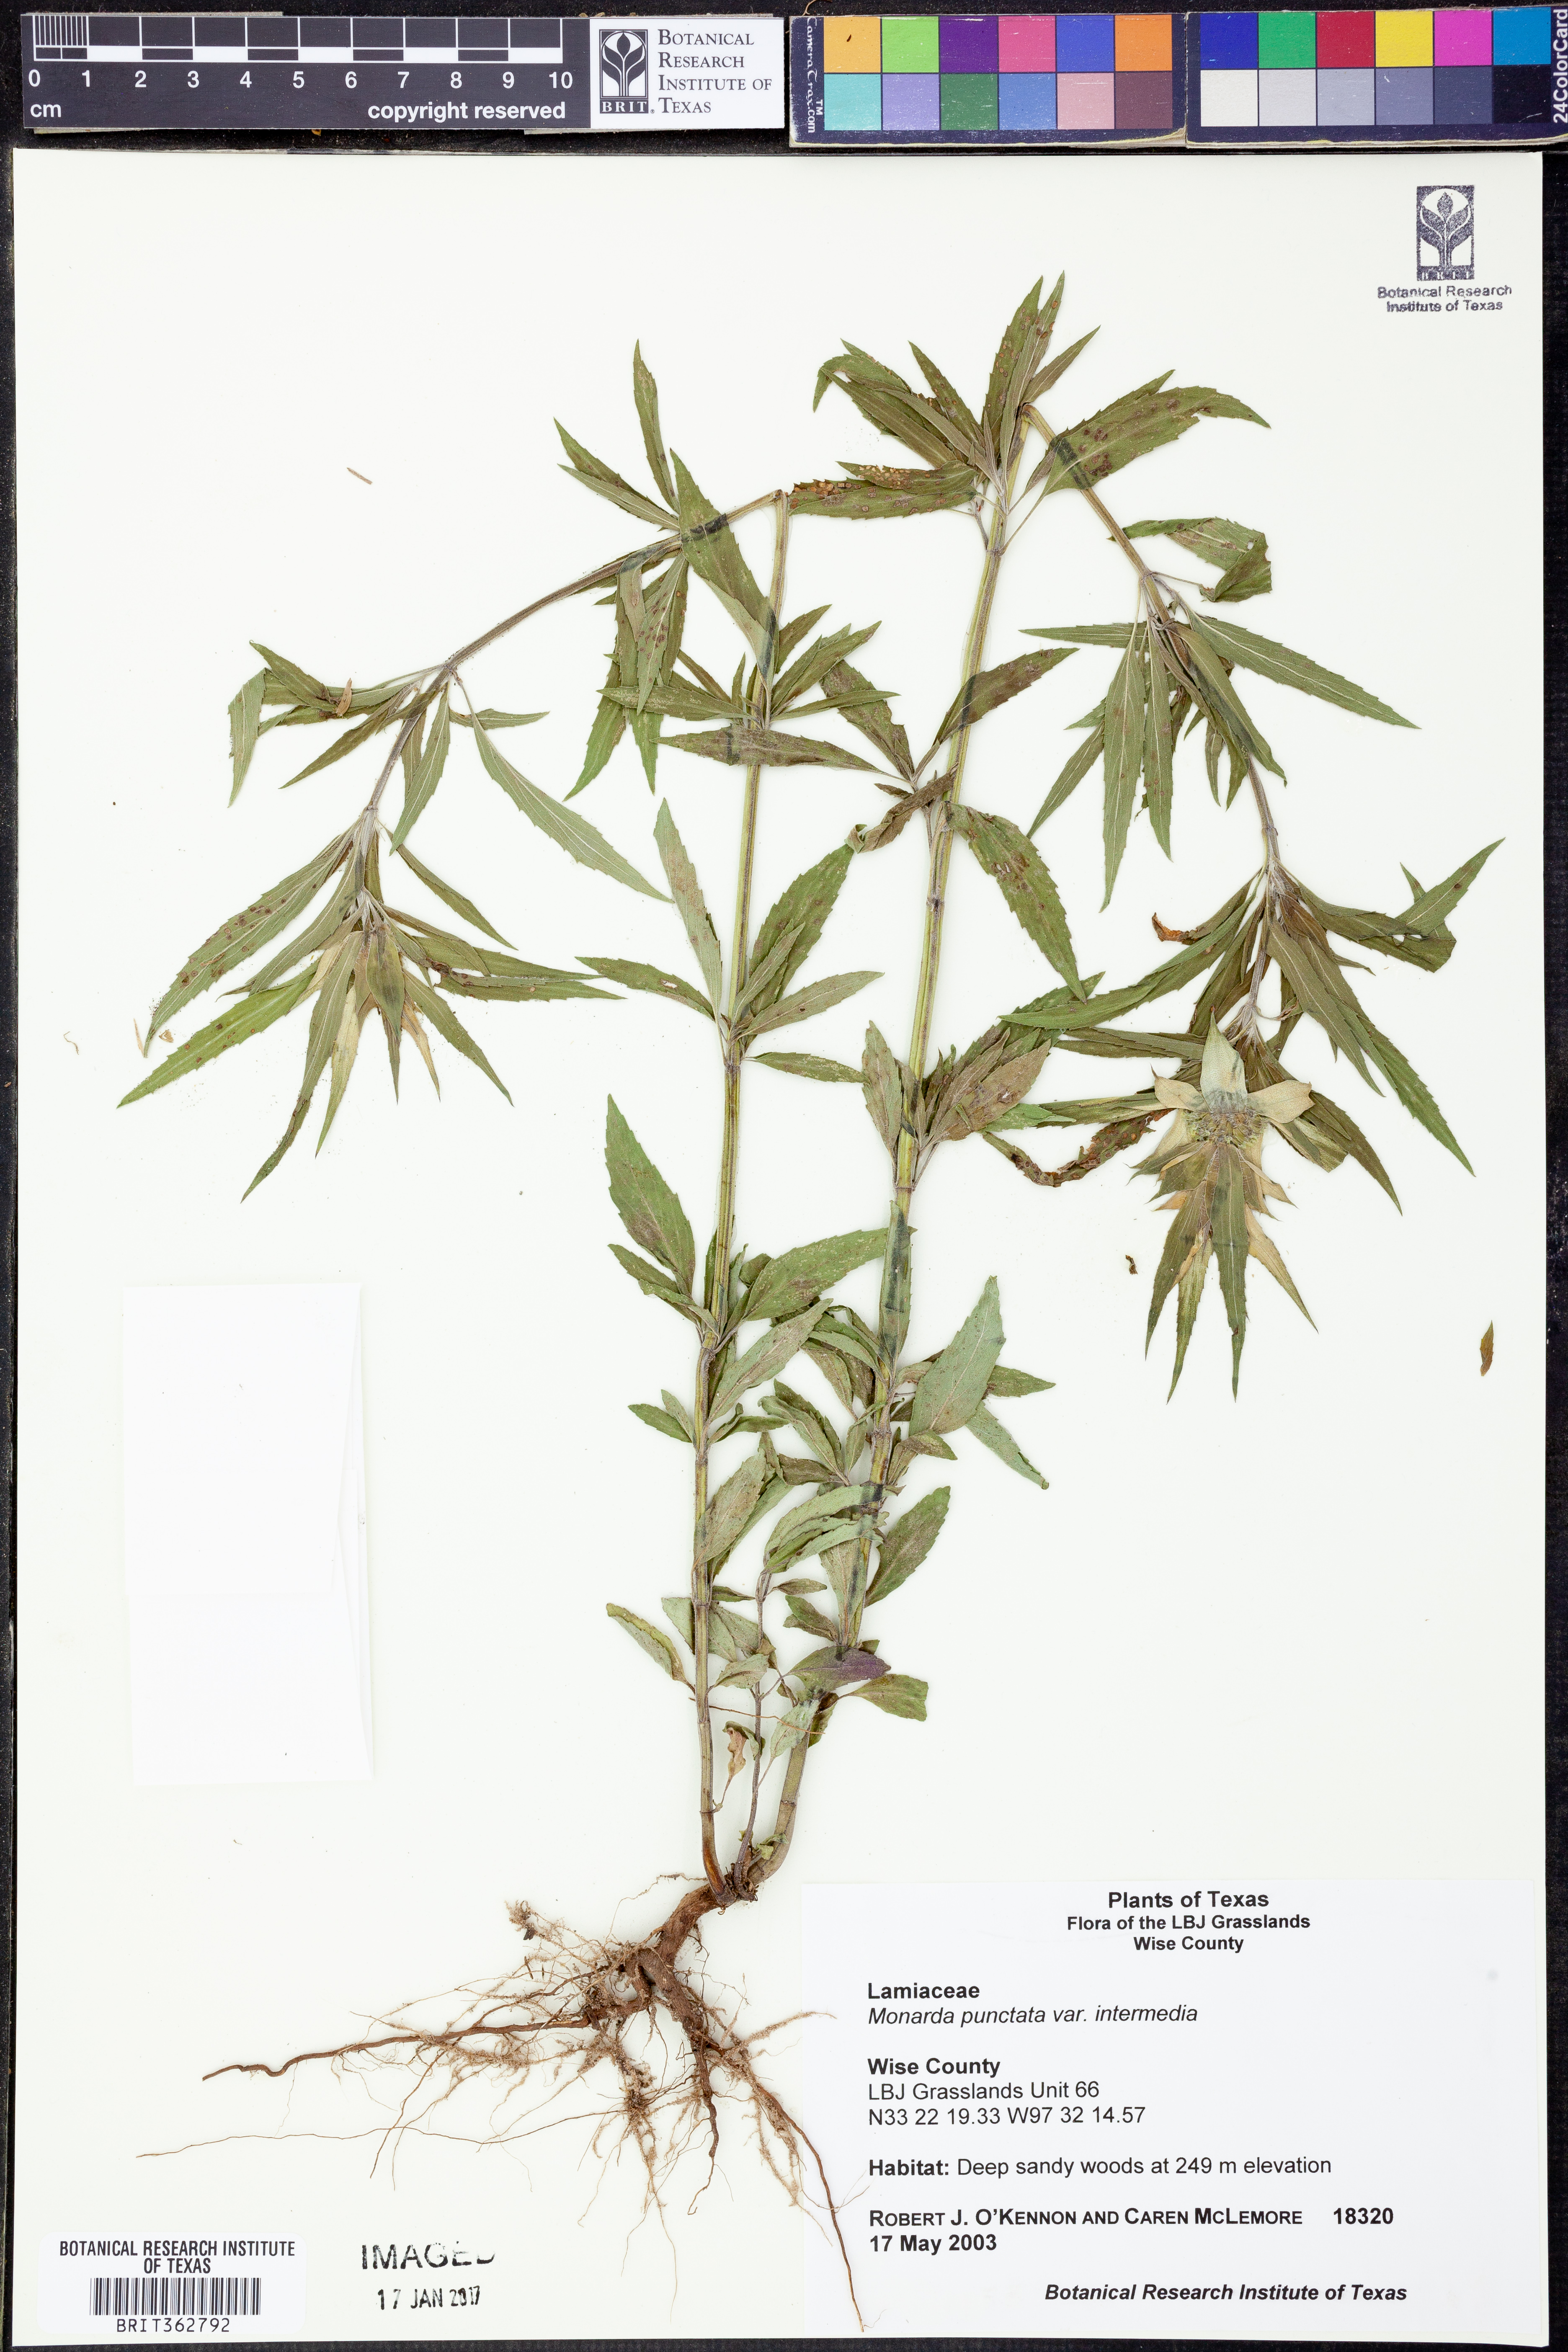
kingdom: Plantae
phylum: Tracheophyta
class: Magnoliopsida
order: Lamiales
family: Lamiaceae
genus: Monarda
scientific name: Monarda punctata
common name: Dotted monarda
